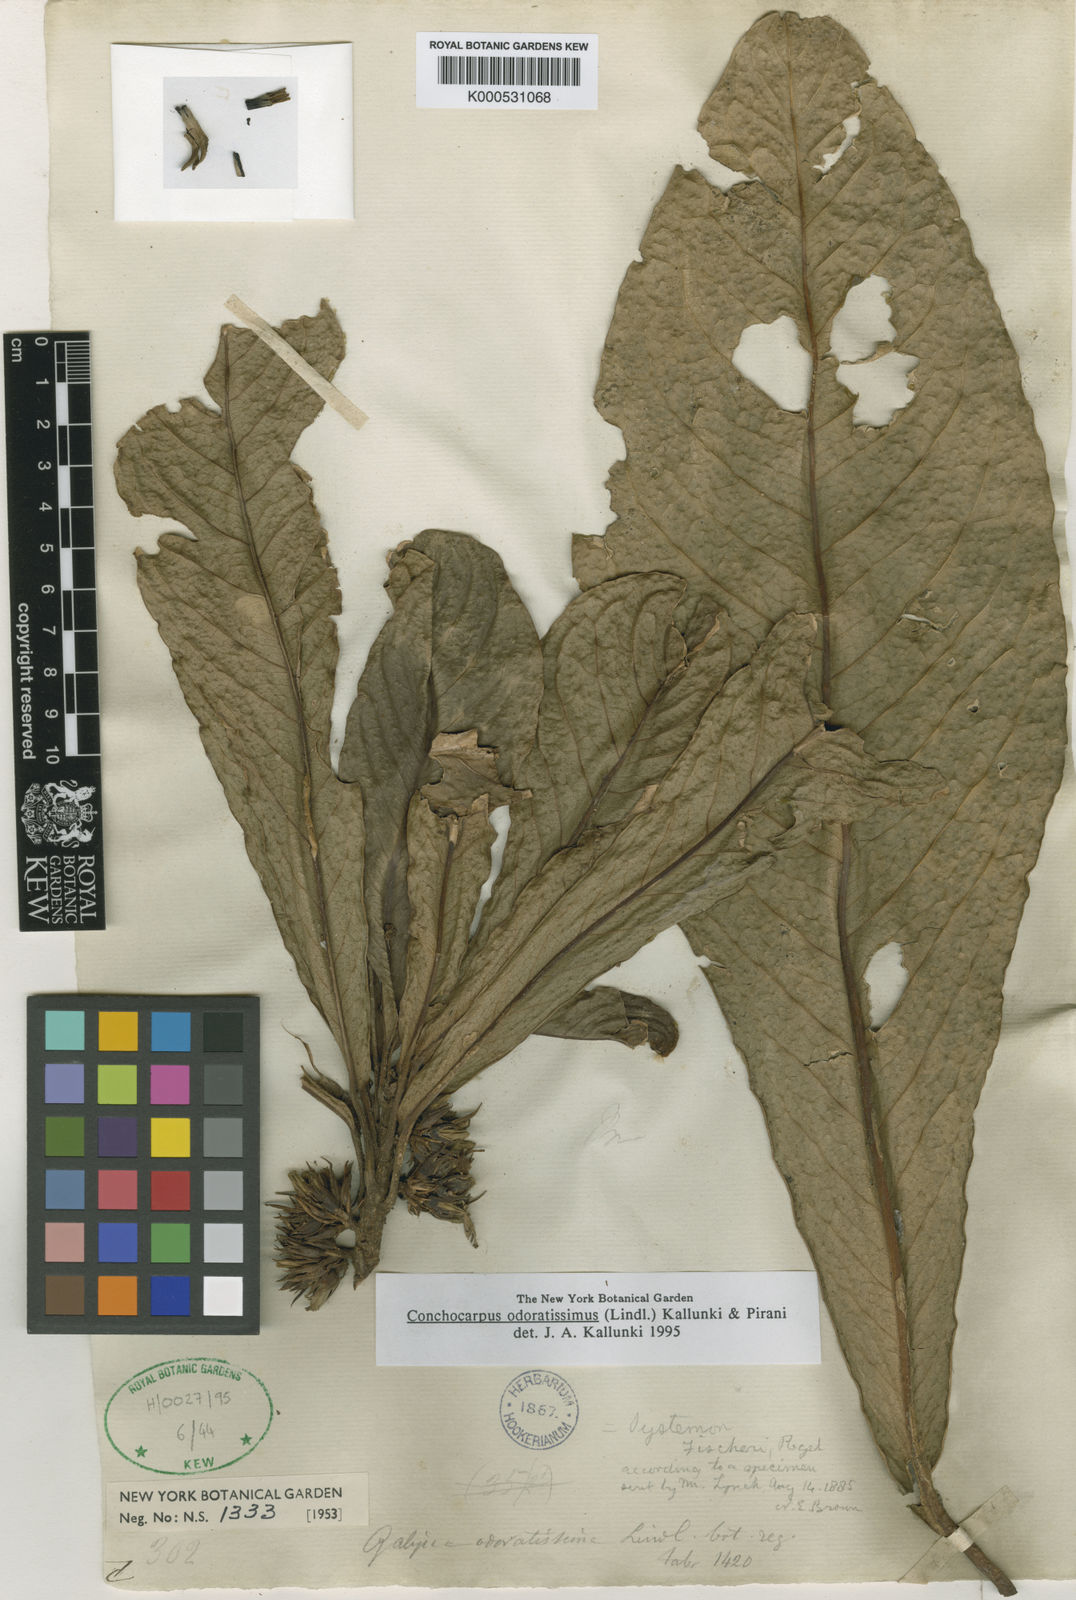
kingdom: Plantae
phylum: Tracheophyta
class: Magnoliopsida
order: Sapindales
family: Rutaceae
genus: Conchocarpus
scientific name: Conchocarpus odoratissimus
